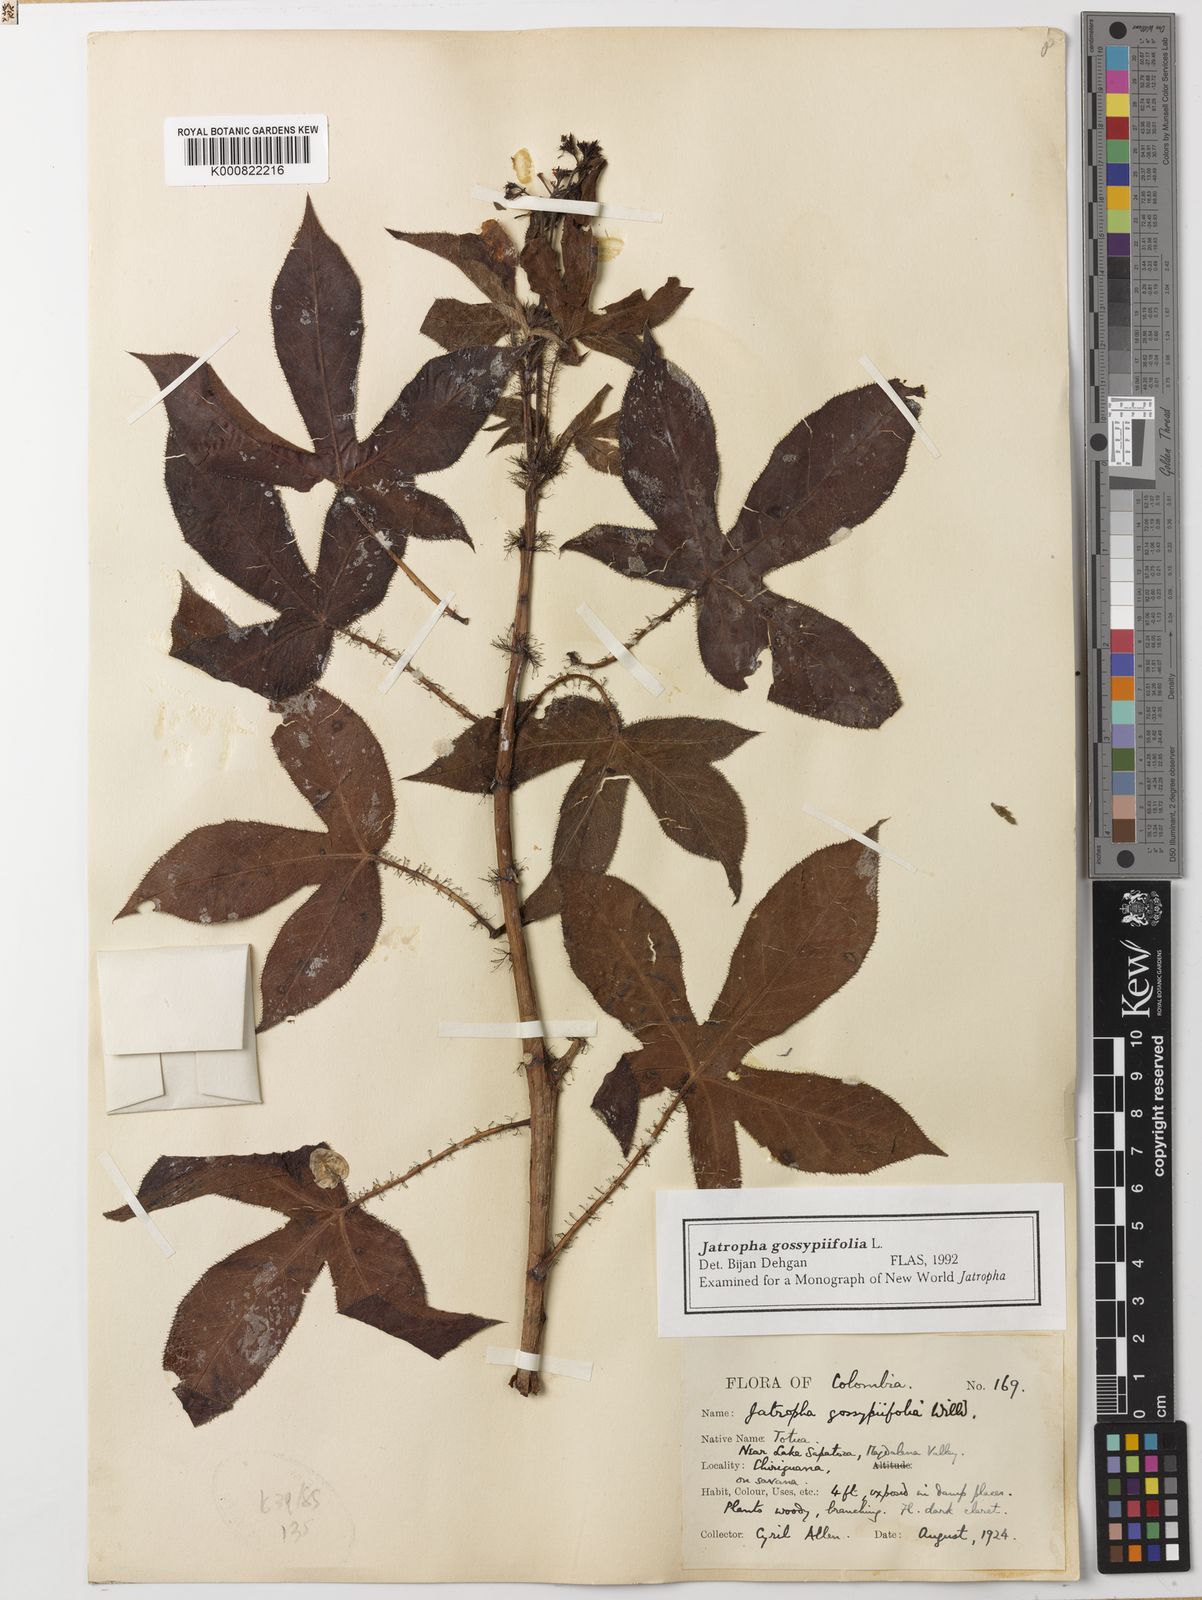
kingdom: Plantae
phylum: Tracheophyta
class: Magnoliopsida
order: Malpighiales
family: Euphorbiaceae
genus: Jatropha
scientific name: Jatropha gossypiifolia
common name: Bellyache bush
